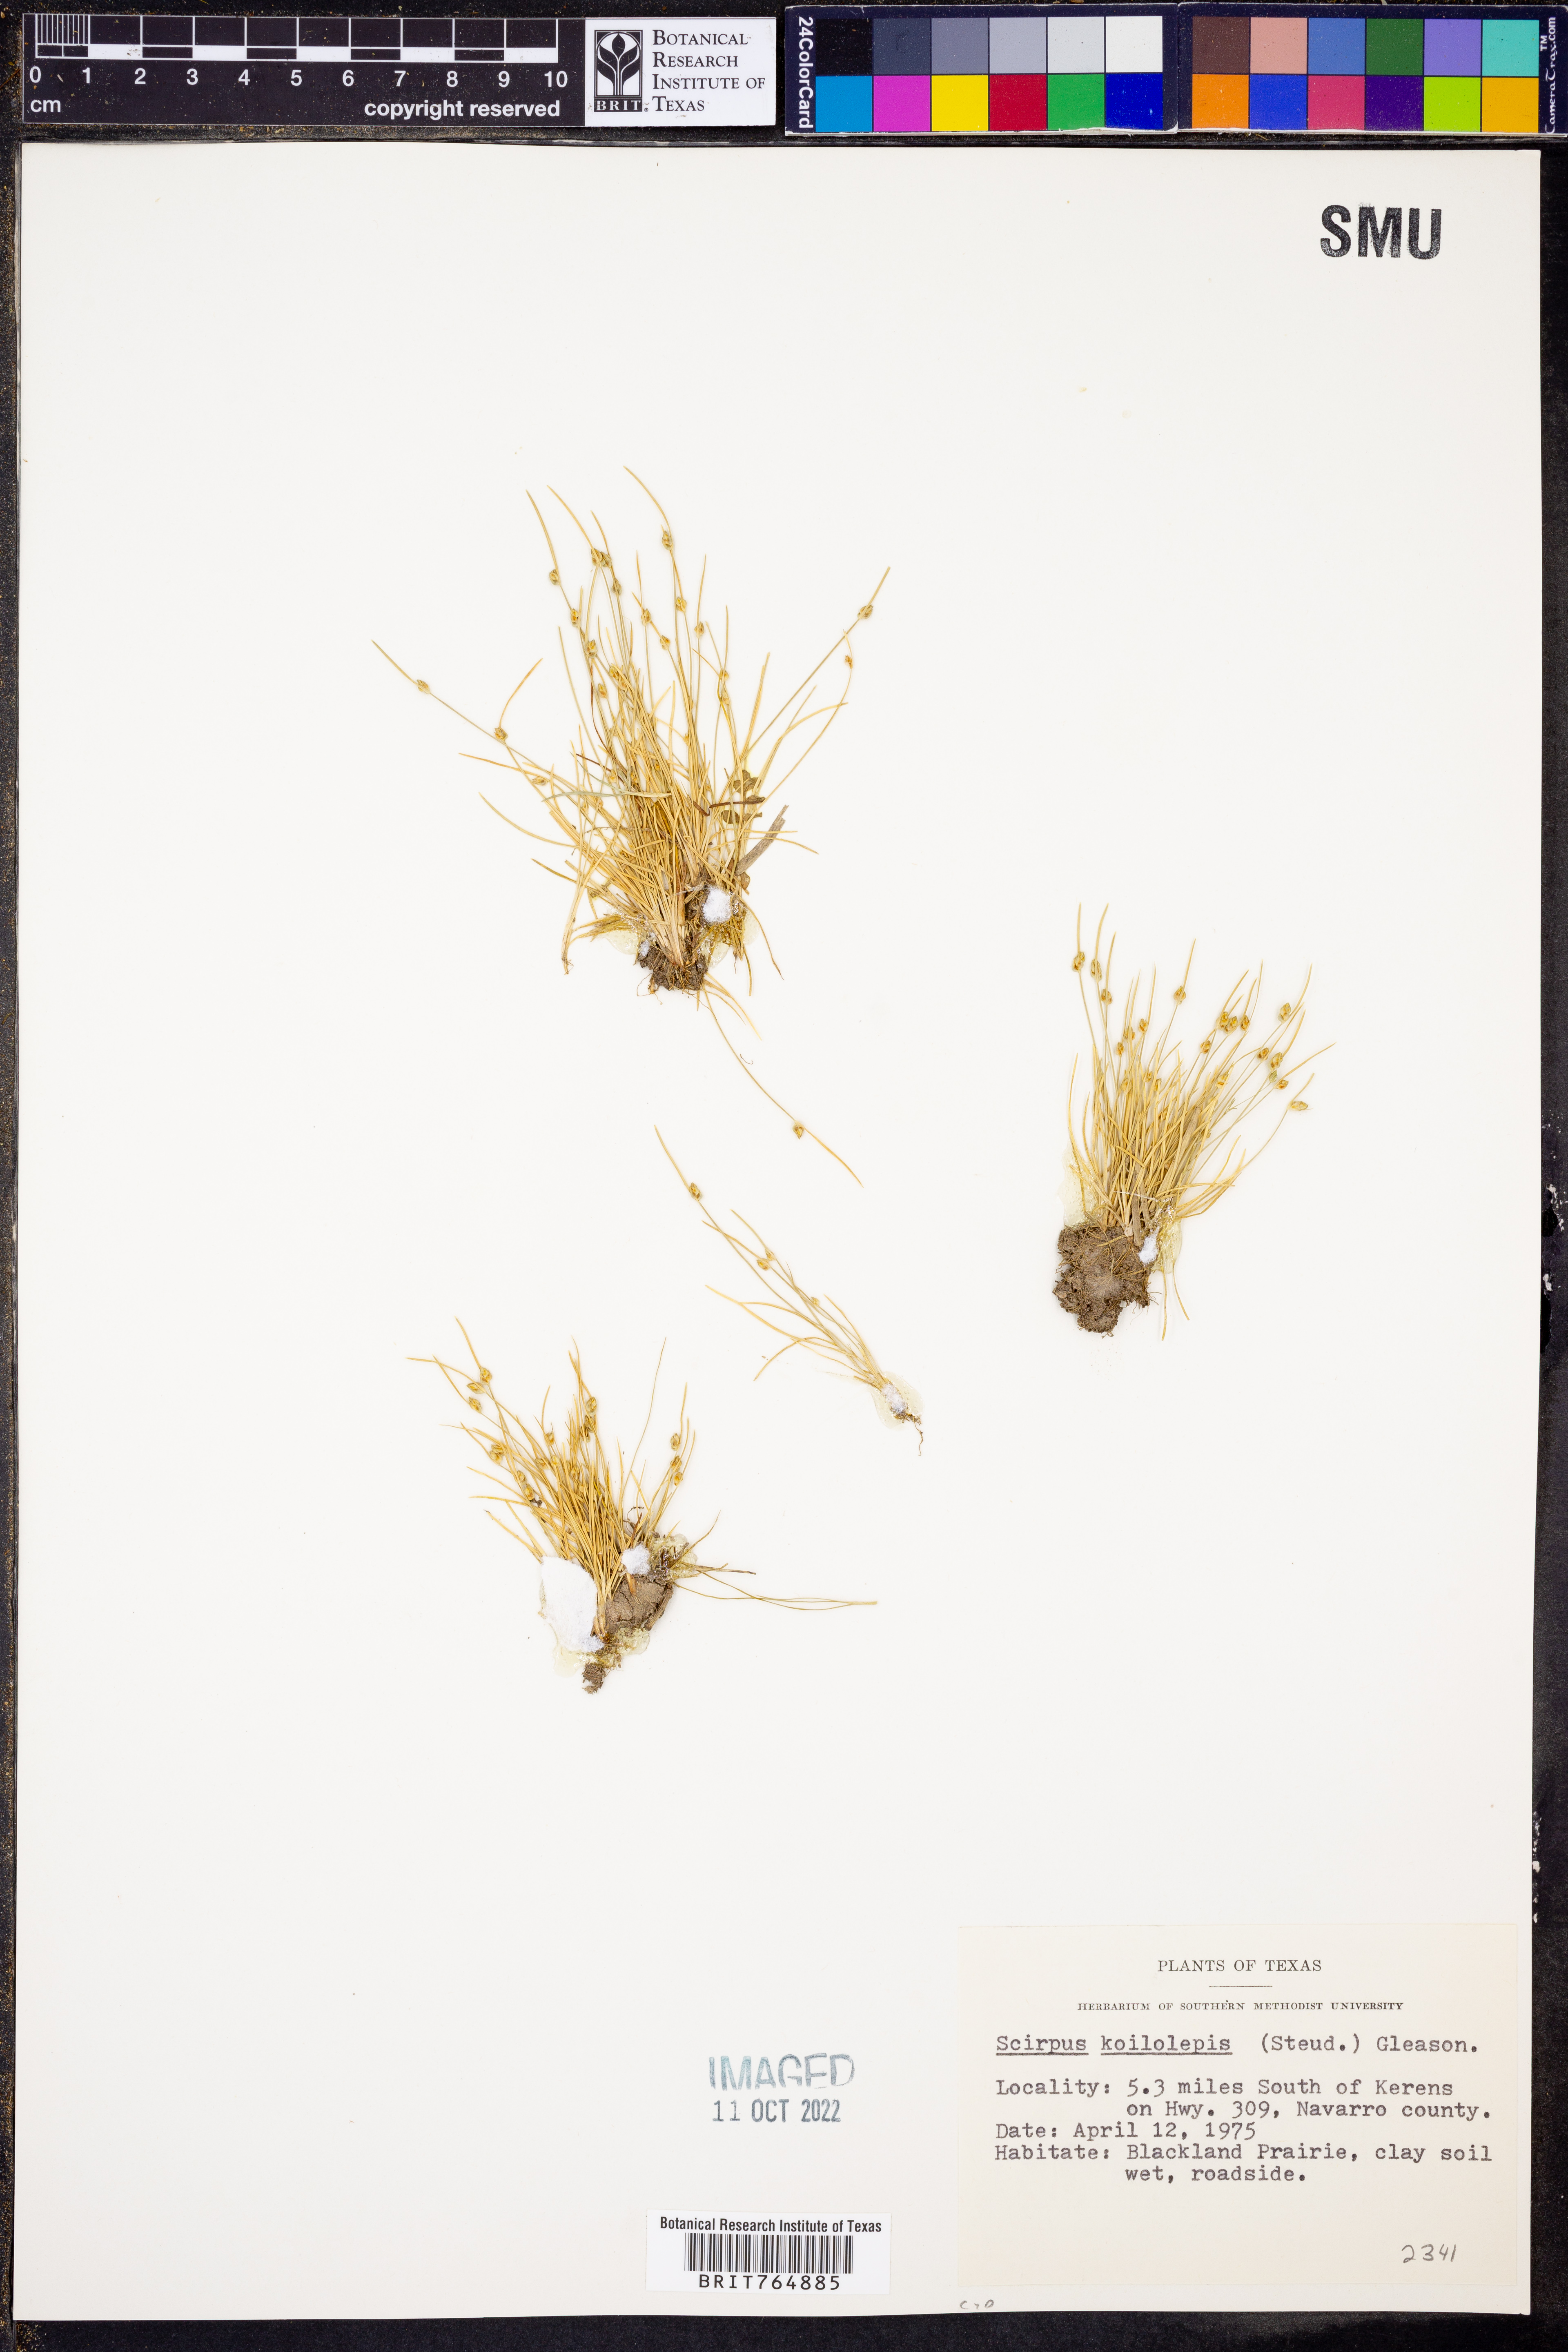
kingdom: Plantae
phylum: Tracheophyta
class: Liliopsida
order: Poales
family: Cyperaceae
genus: Isolepis
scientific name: Isolepis carinata
